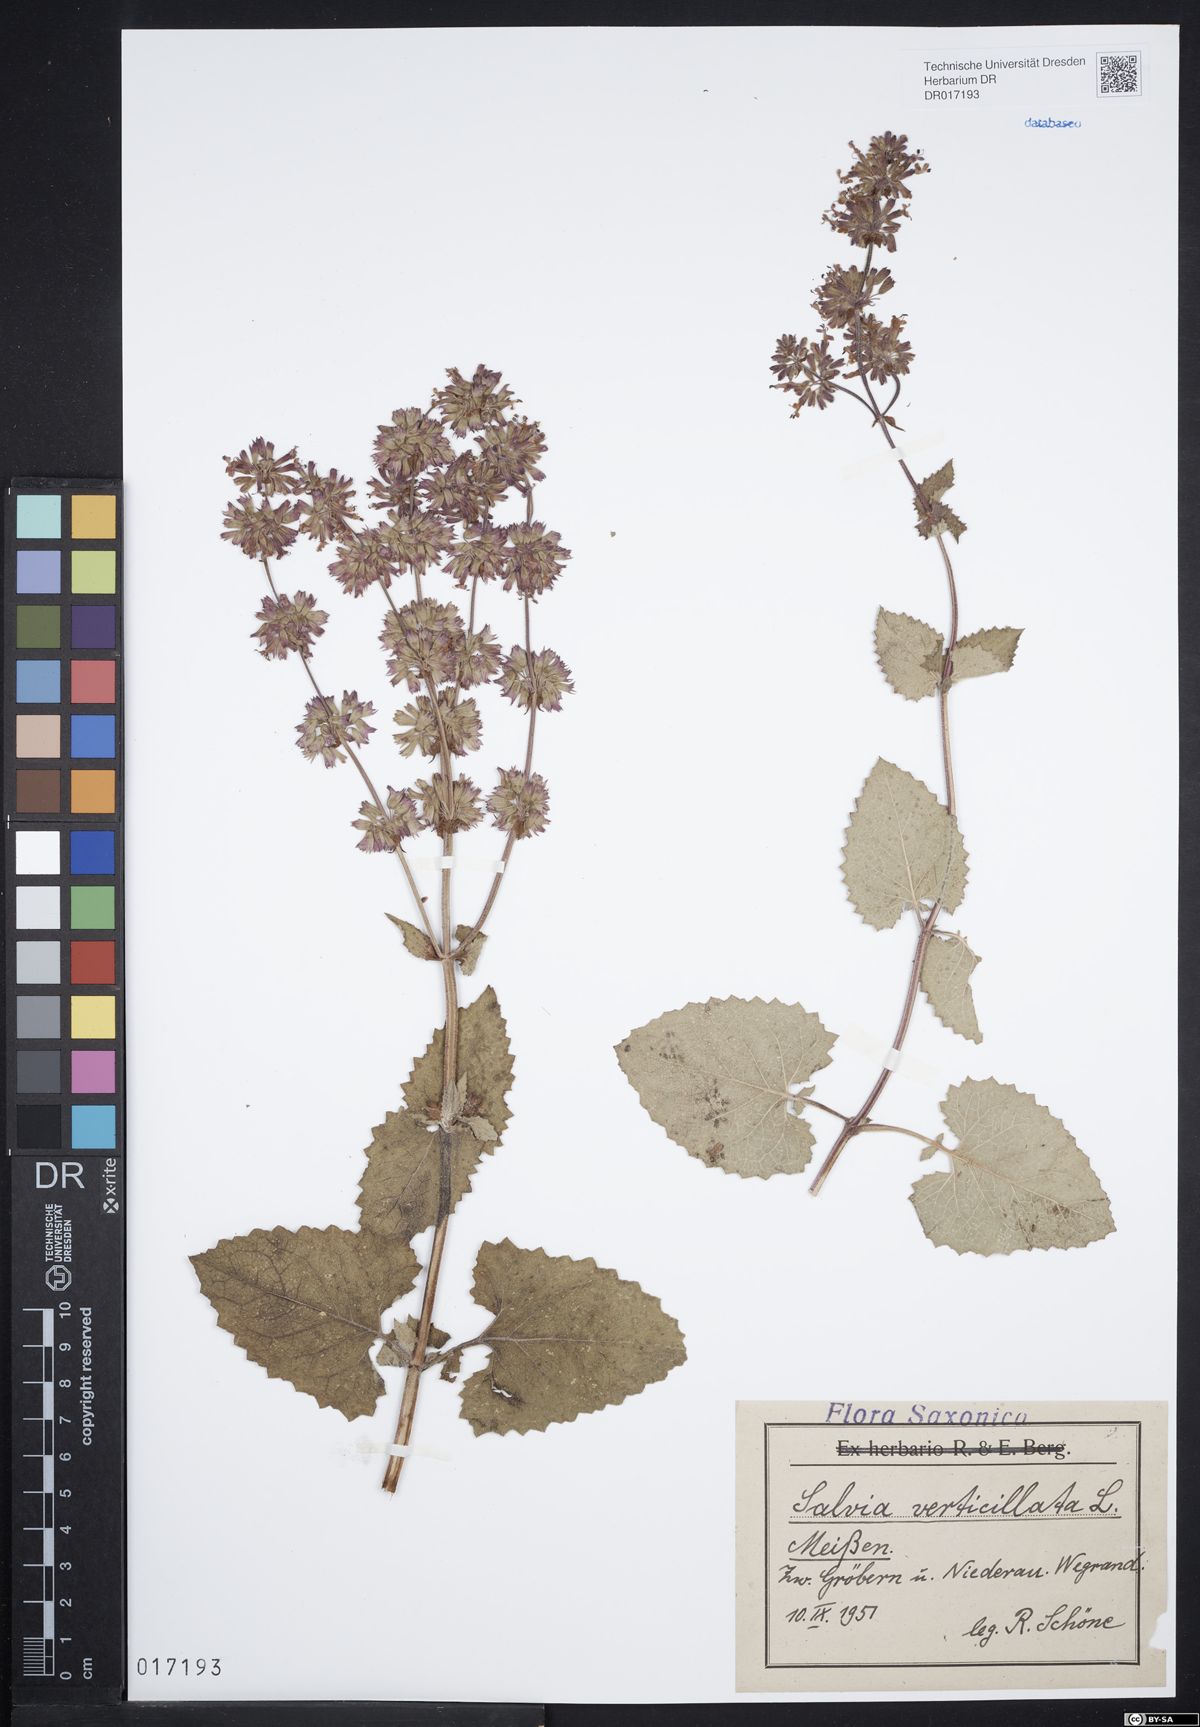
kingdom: Plantae
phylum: Tracheophyta
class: Magnoliopsida
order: Lamiales
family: Lamiaceae
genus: Salvia
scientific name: Salvia verticillata
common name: Whorled clary
